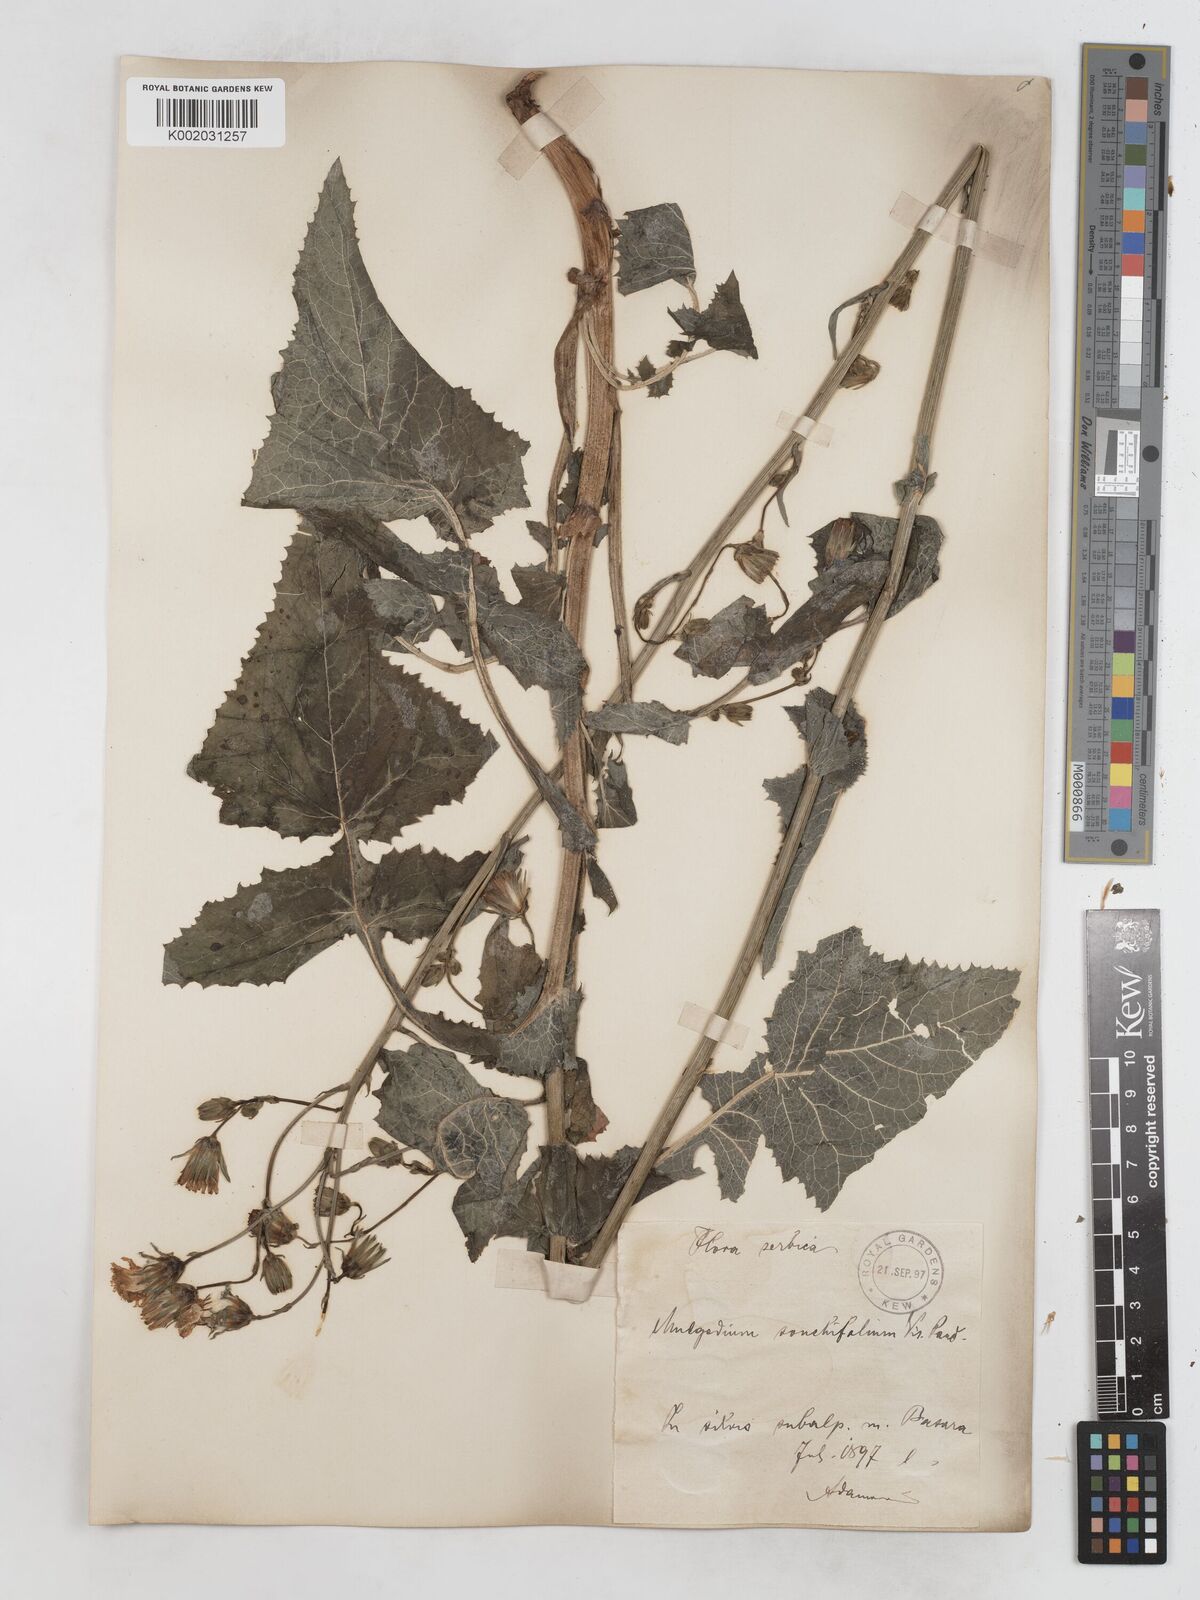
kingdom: Plantae
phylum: Tracheophyta
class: Magnoliopsida
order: Asterales
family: Asteraceae
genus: Lactuca
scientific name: Lactuca sonchifolia
